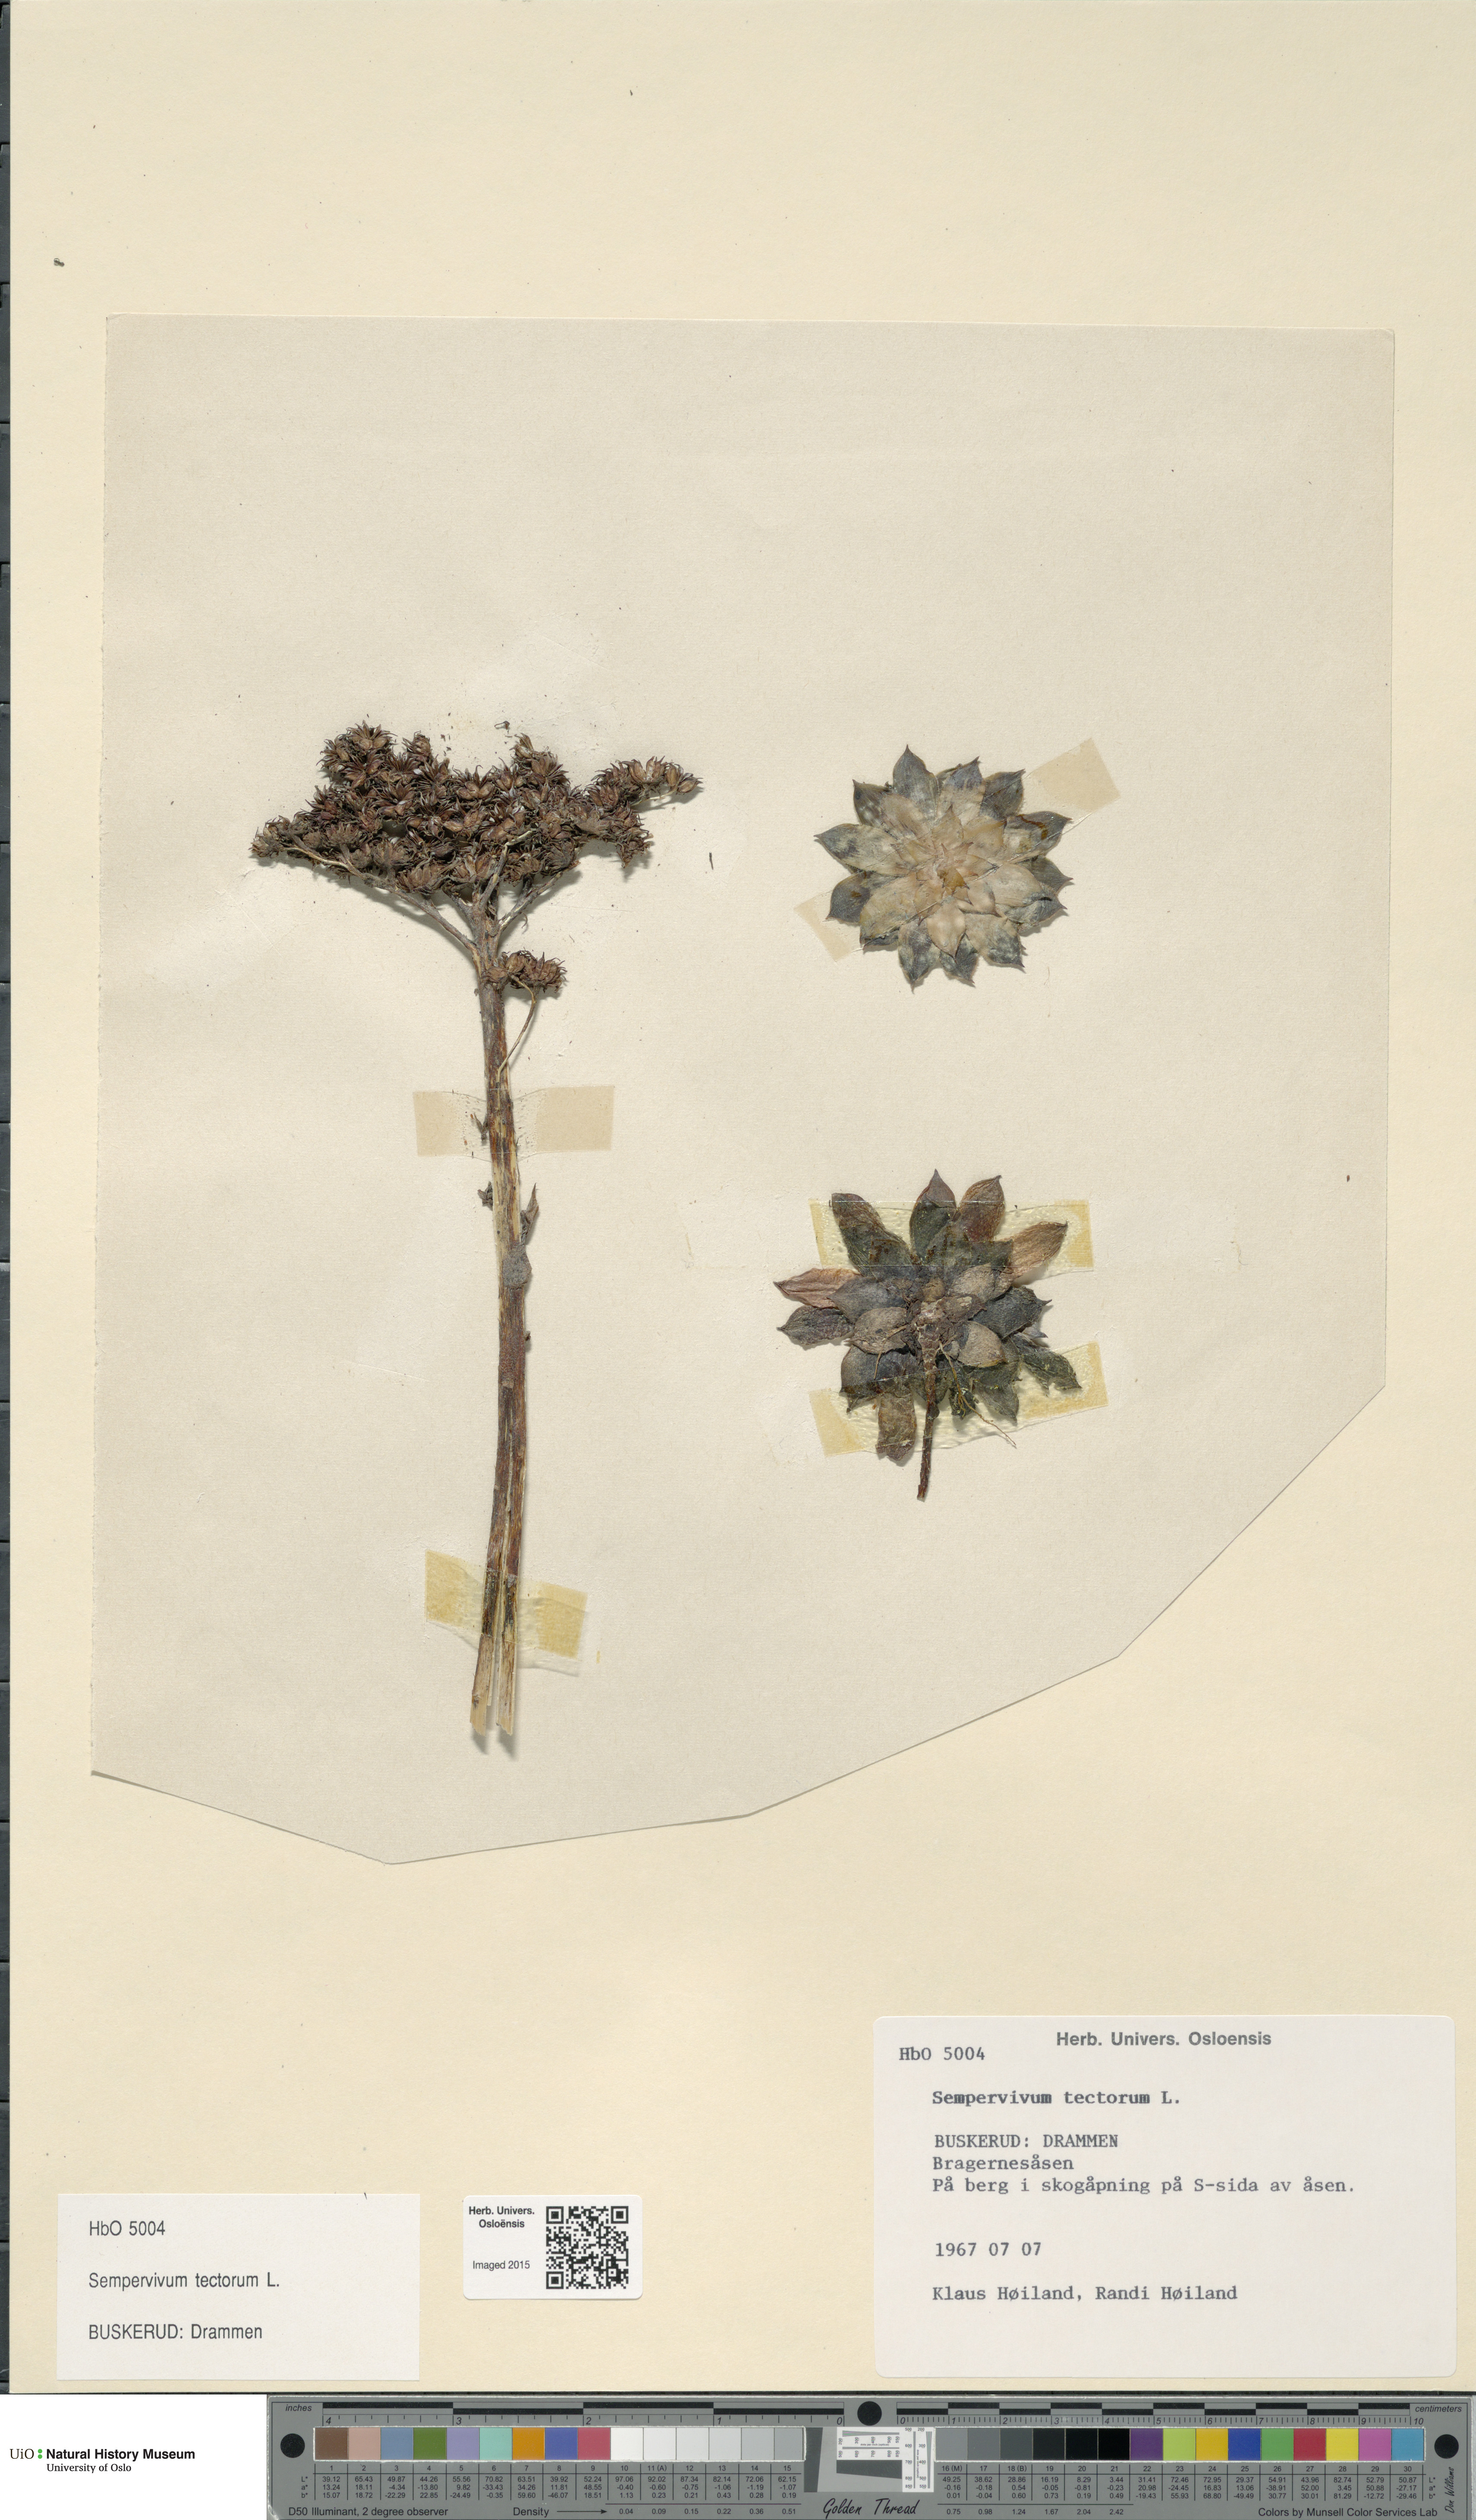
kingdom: Plantae
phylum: Tracheophyta
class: Magnoliopsida
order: Saxifragales
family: Crassulaceae
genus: Sempervivum
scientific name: Sempervivum tectorum
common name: House-leek
